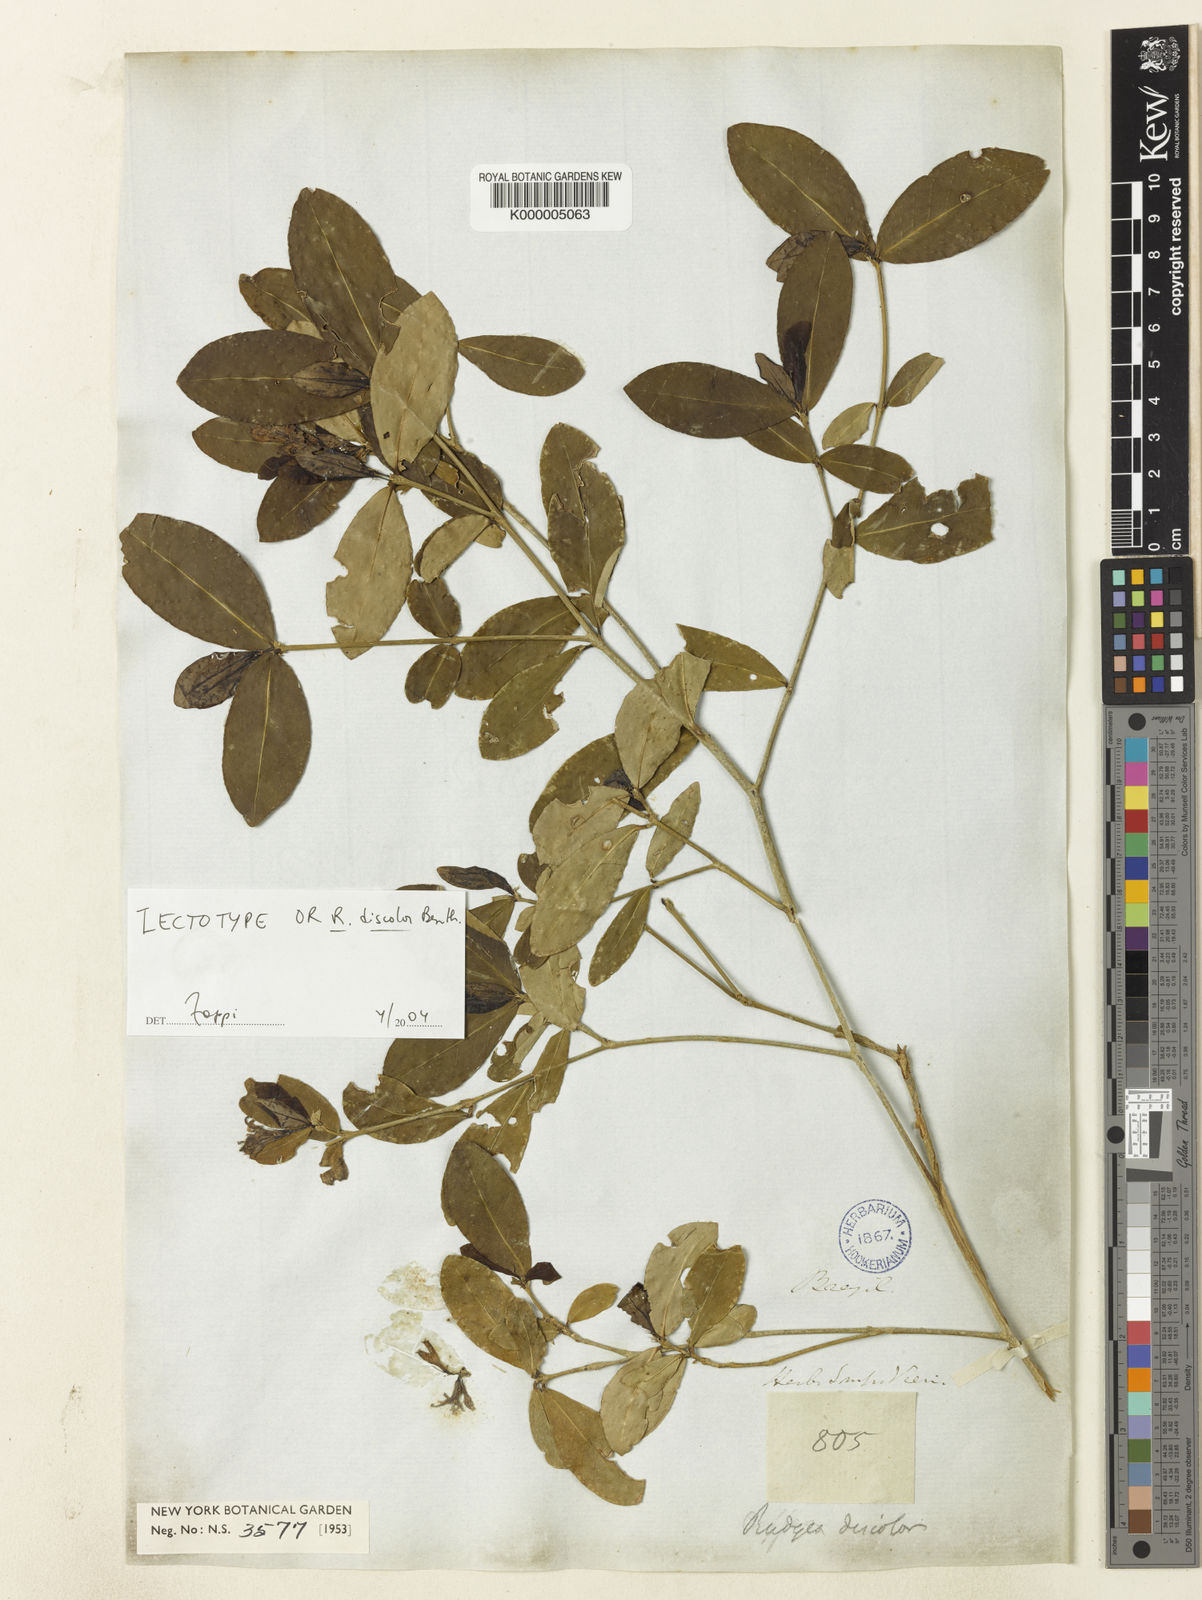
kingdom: Plantae
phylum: Tracheophyta
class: Magnoliopsida
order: Gentianales
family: Rubiaceae
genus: Rudgea
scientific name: Rudgea discolor
